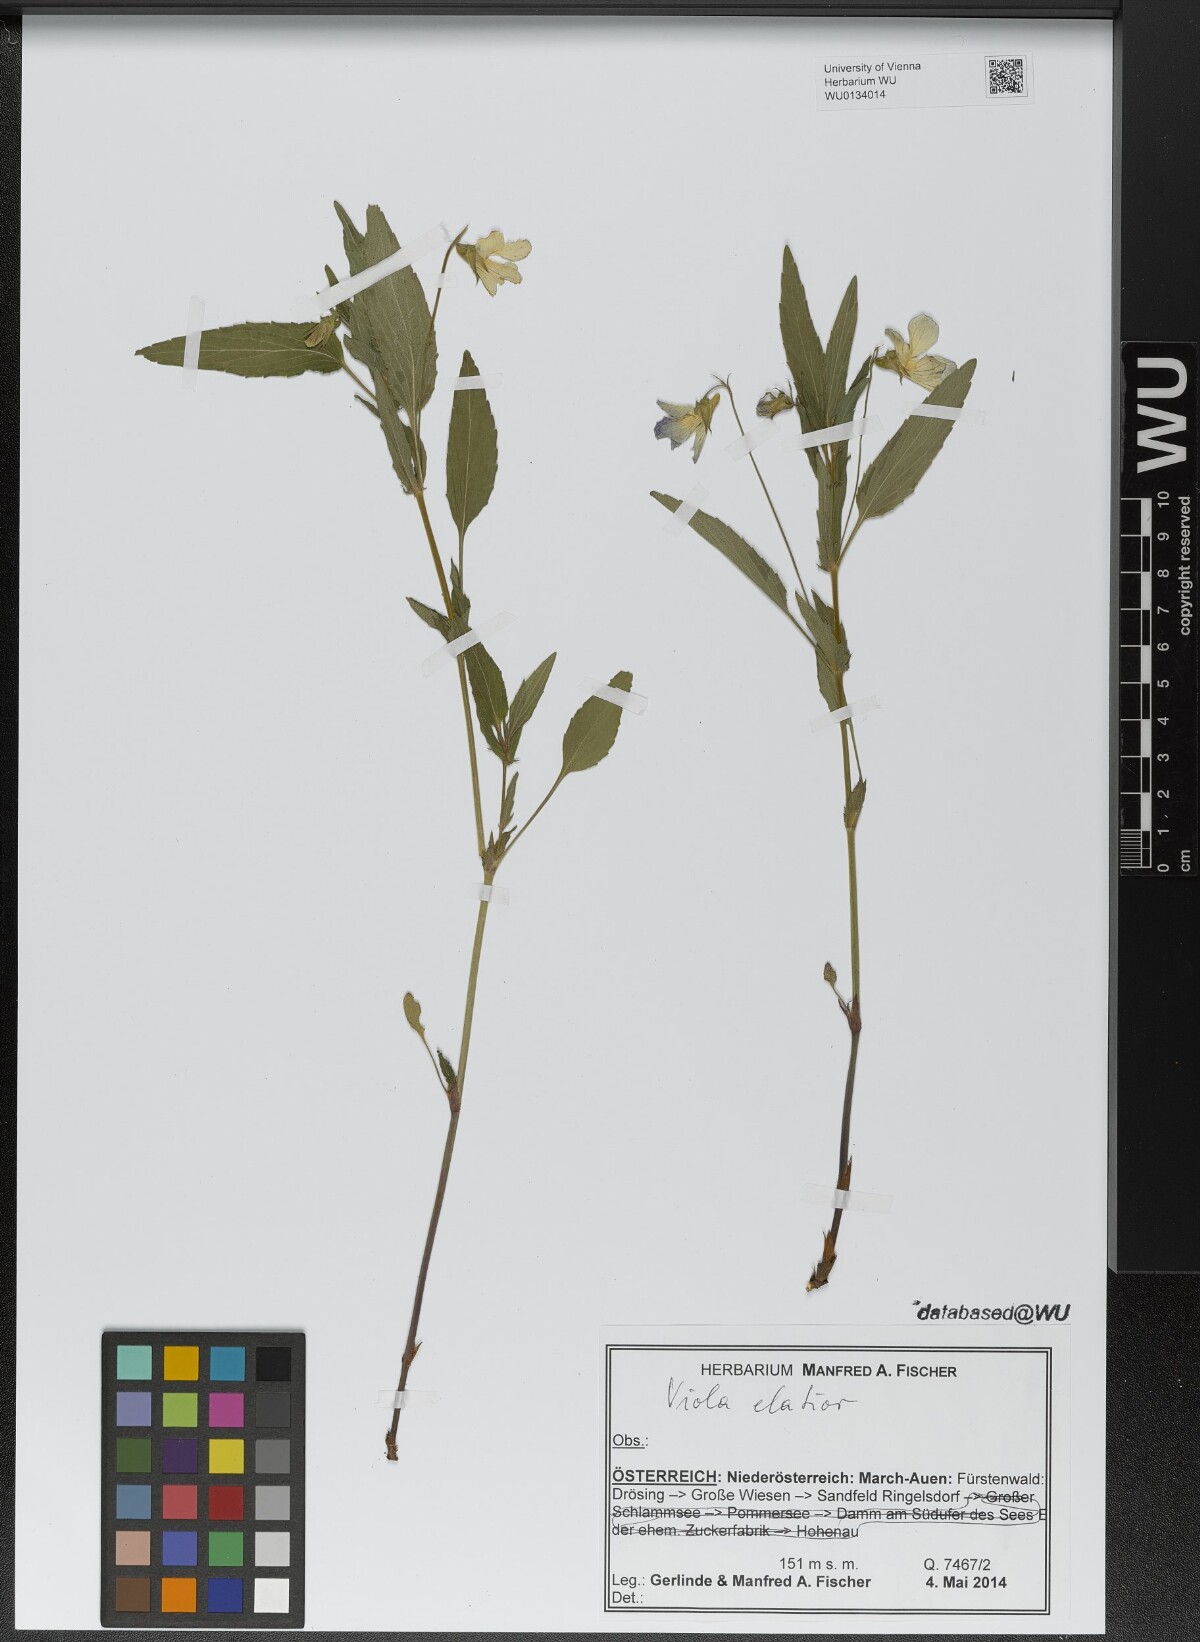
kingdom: Plantae
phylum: Tracheophyta
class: Magnoliopsida
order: Malpighiales
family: Violaceae
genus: Viola
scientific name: Viola elatior
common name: Tall violet
